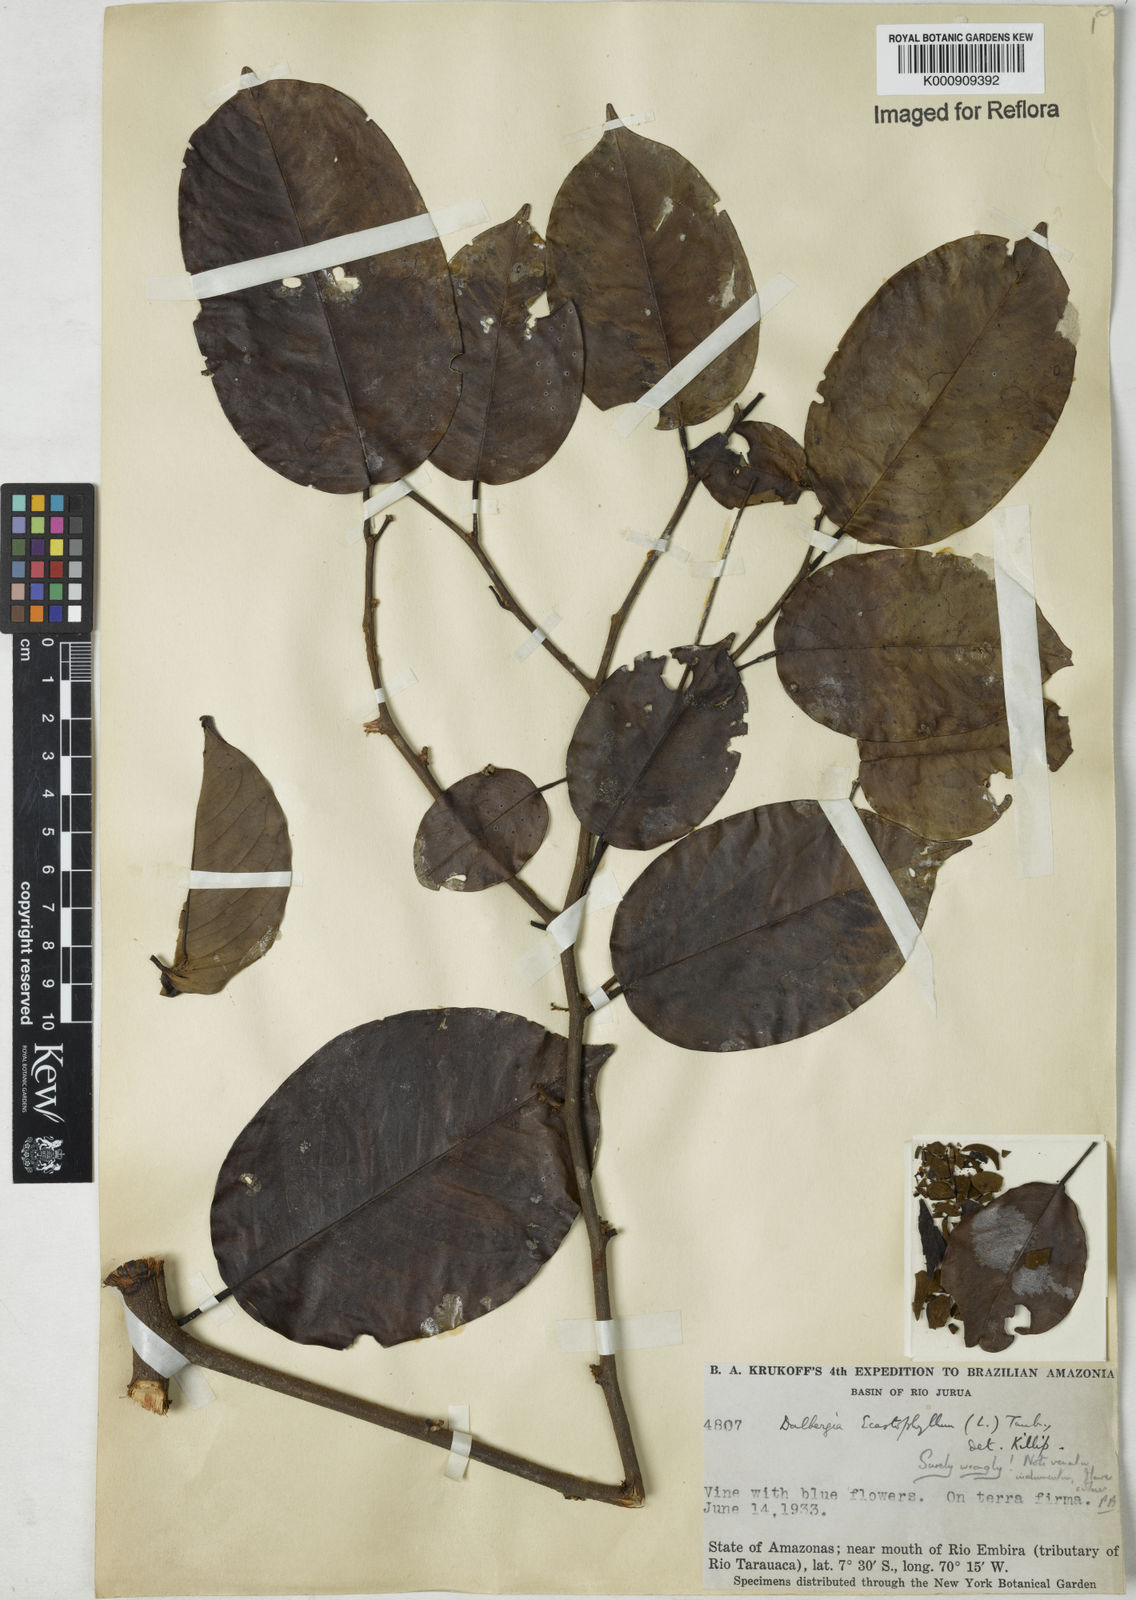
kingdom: Plantae
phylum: Tracheophyta
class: Magnoliopsida
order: Fabales
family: Fabaceae
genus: Dalbergia
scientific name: Dalbergia
